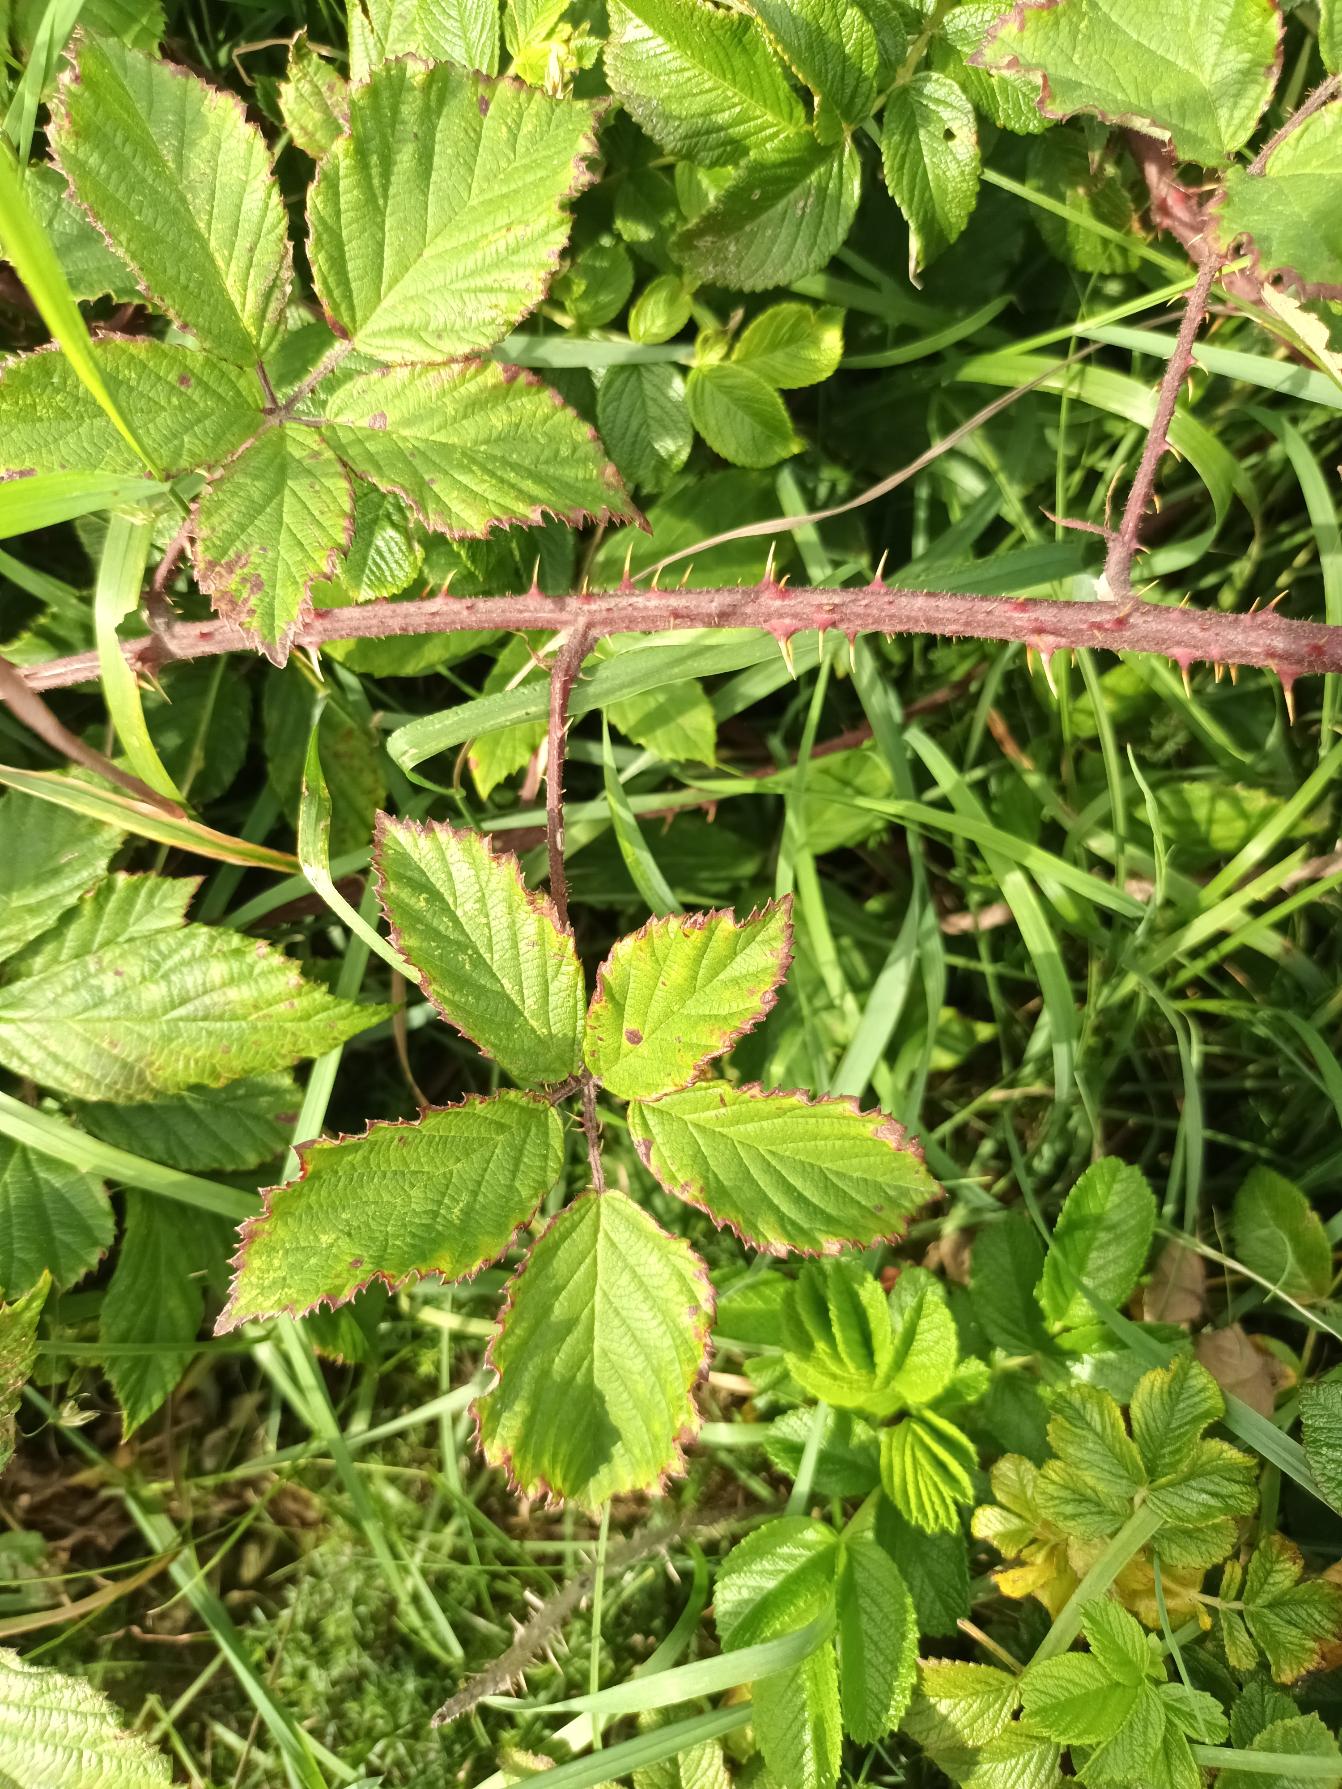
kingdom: Plantae
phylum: Tracheophyta
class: Magnoliopsida
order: Rosales
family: Rosaceae
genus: Rubus
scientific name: Rubus radula
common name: Rasperu brombær
